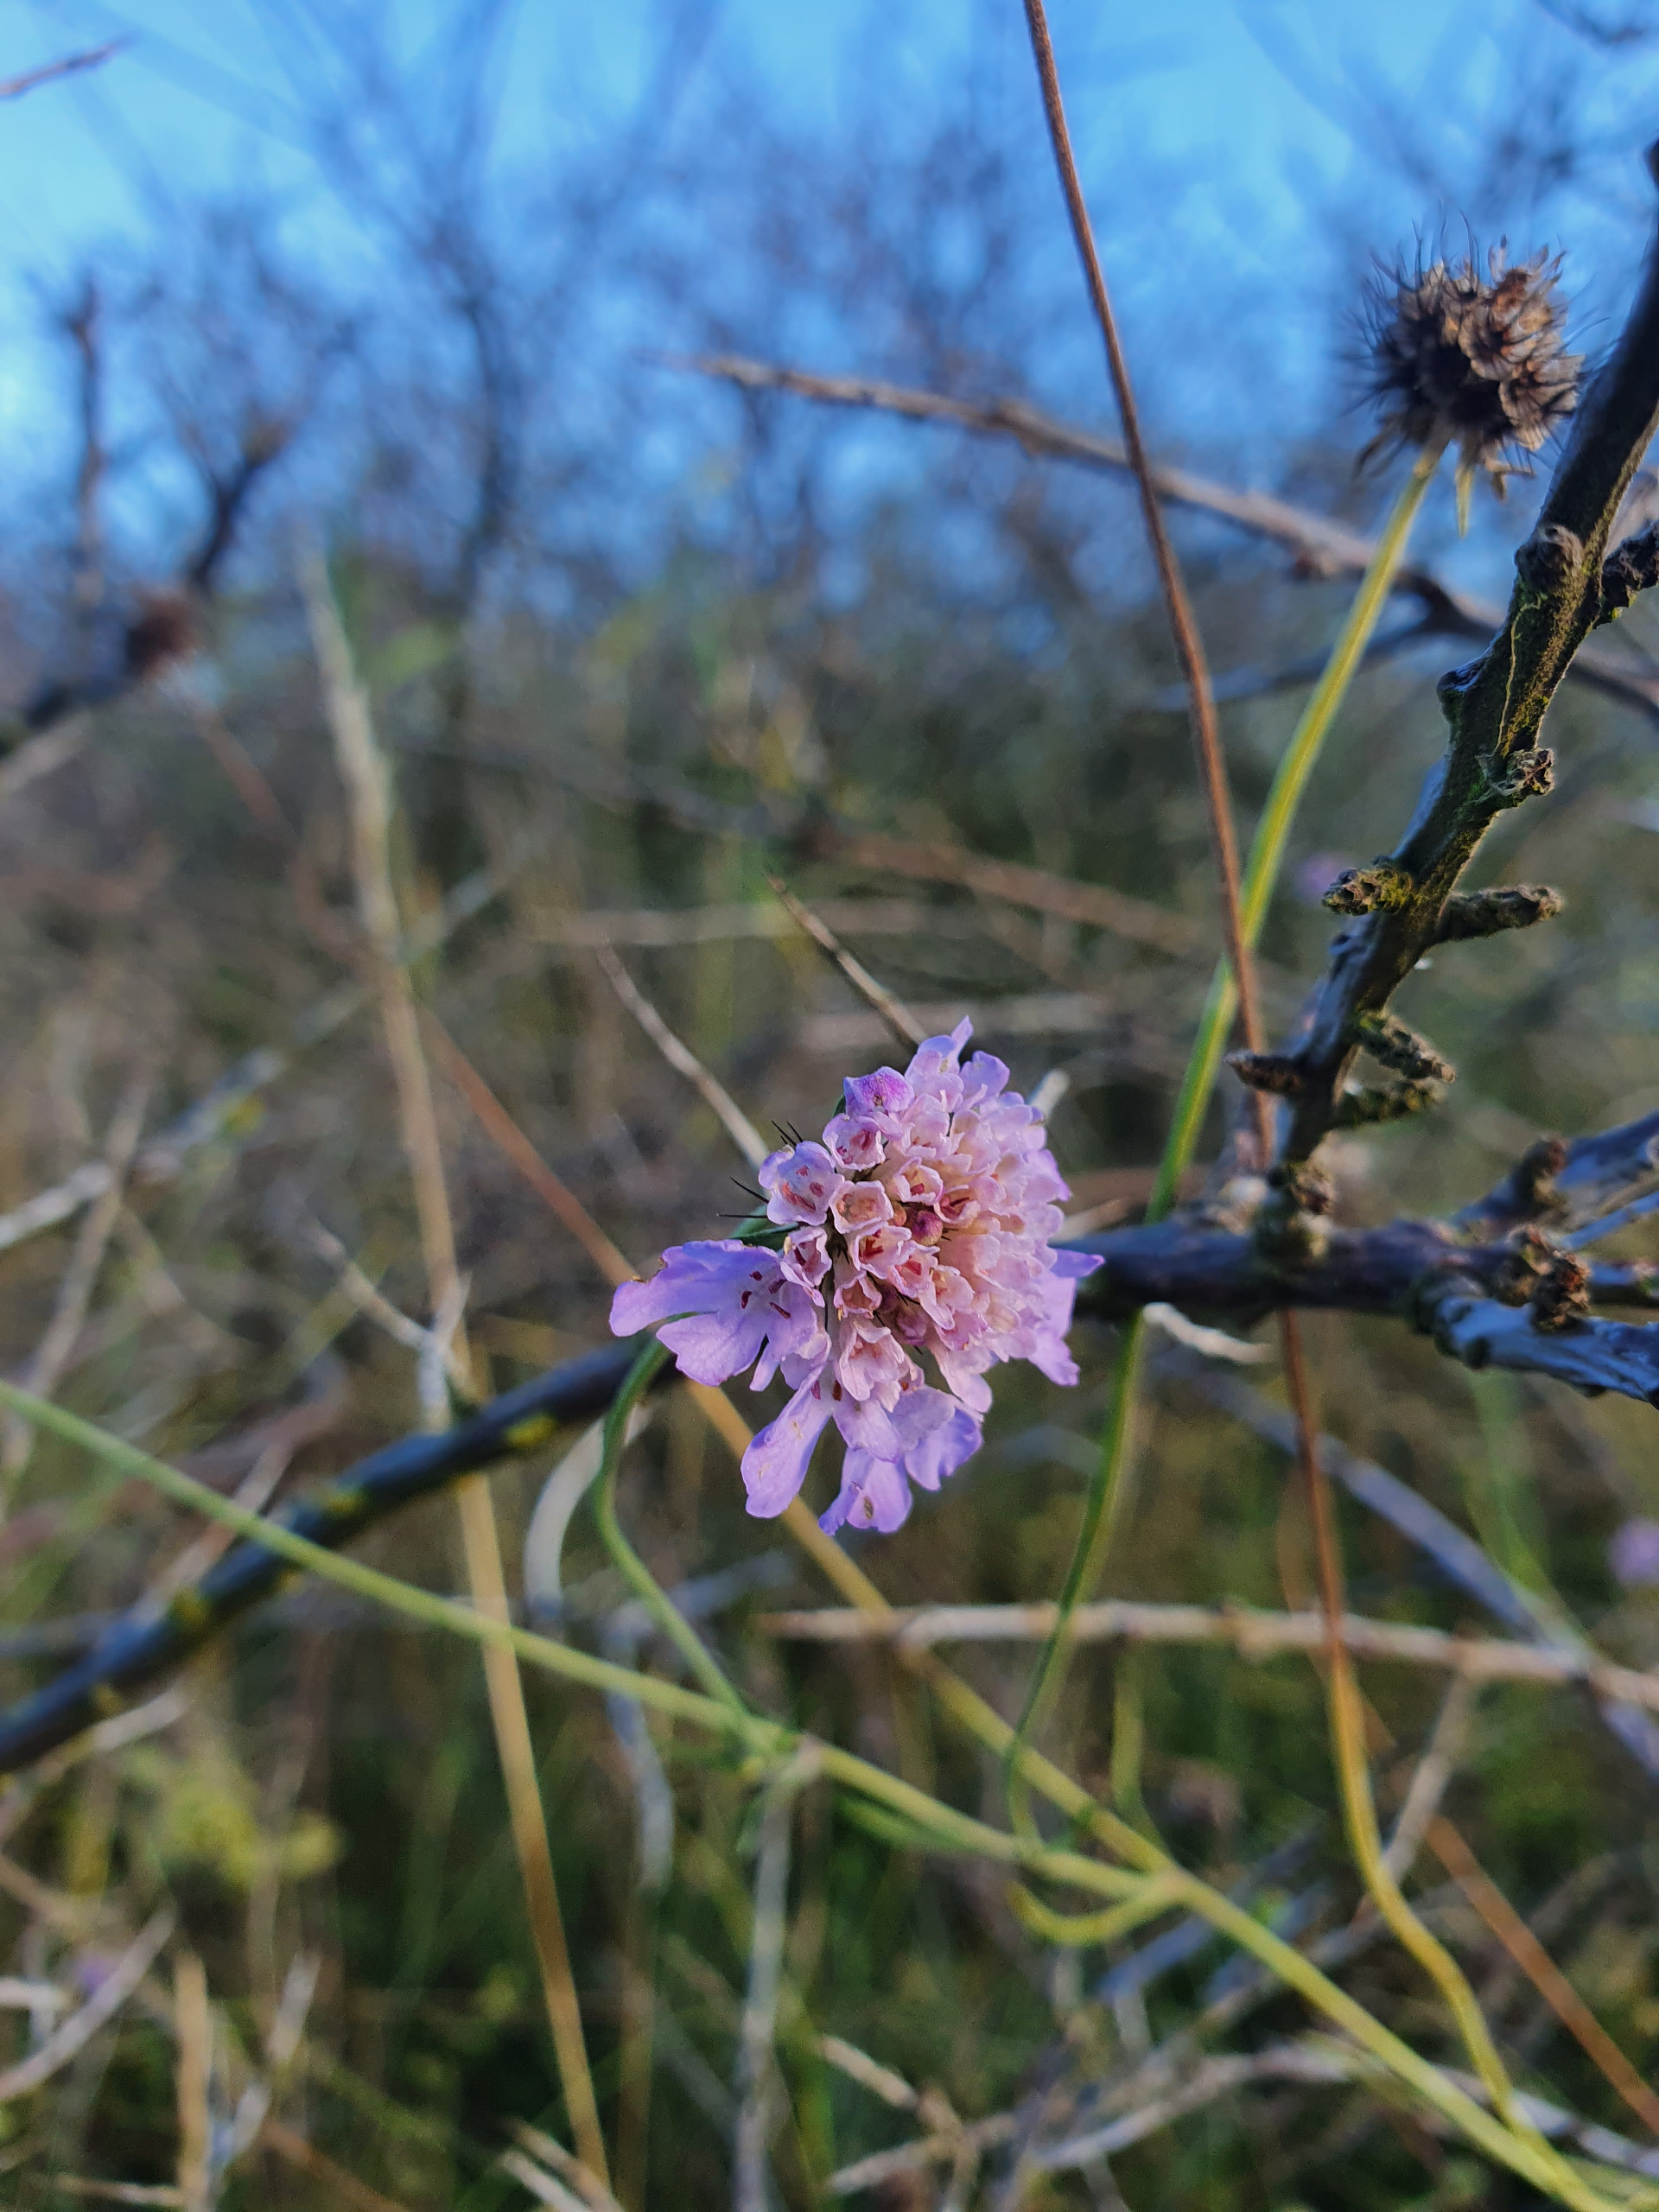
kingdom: Plantae
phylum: Tracheophyta
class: Magnoliopsida
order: Dipsacales
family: Caprifoliaceae
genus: Scabiosa
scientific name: Scabiosa columbaria
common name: Due-skabiose
